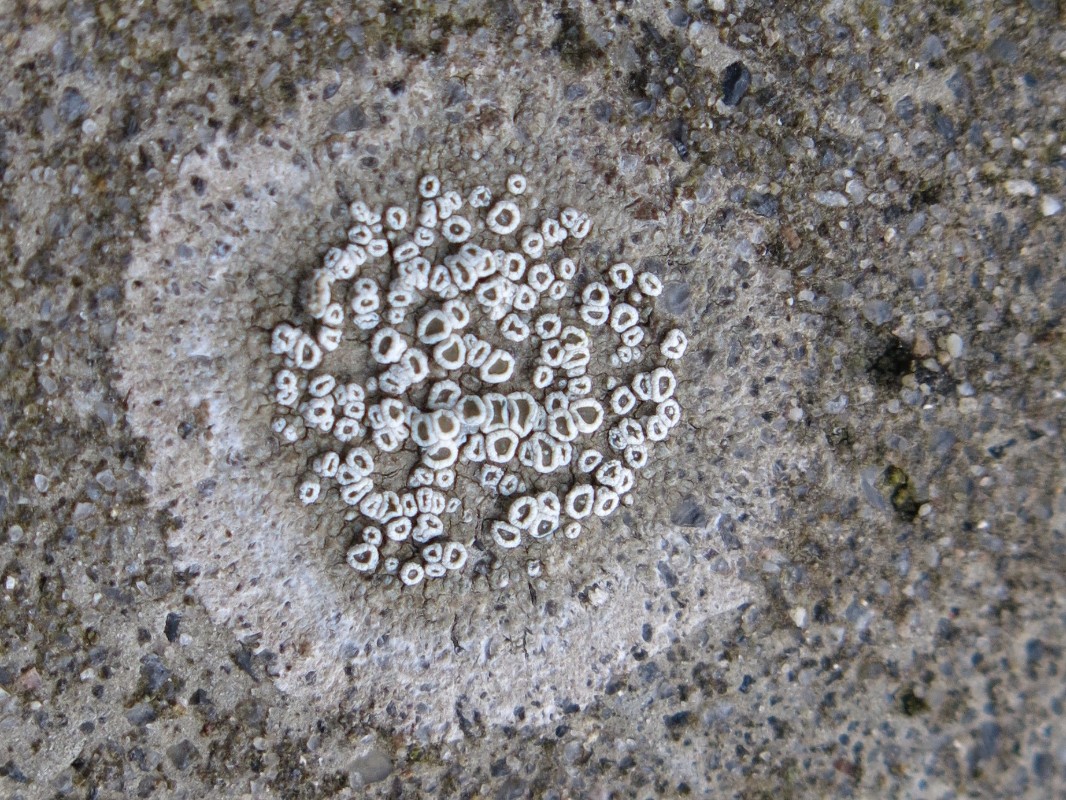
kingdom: Fungi
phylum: Ascomycota
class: Lecanoromycetes
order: Lecanorales
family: Lecanoraceae
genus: Polyozosia
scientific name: Polyozosia albescens
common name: cement-kantskivelav
